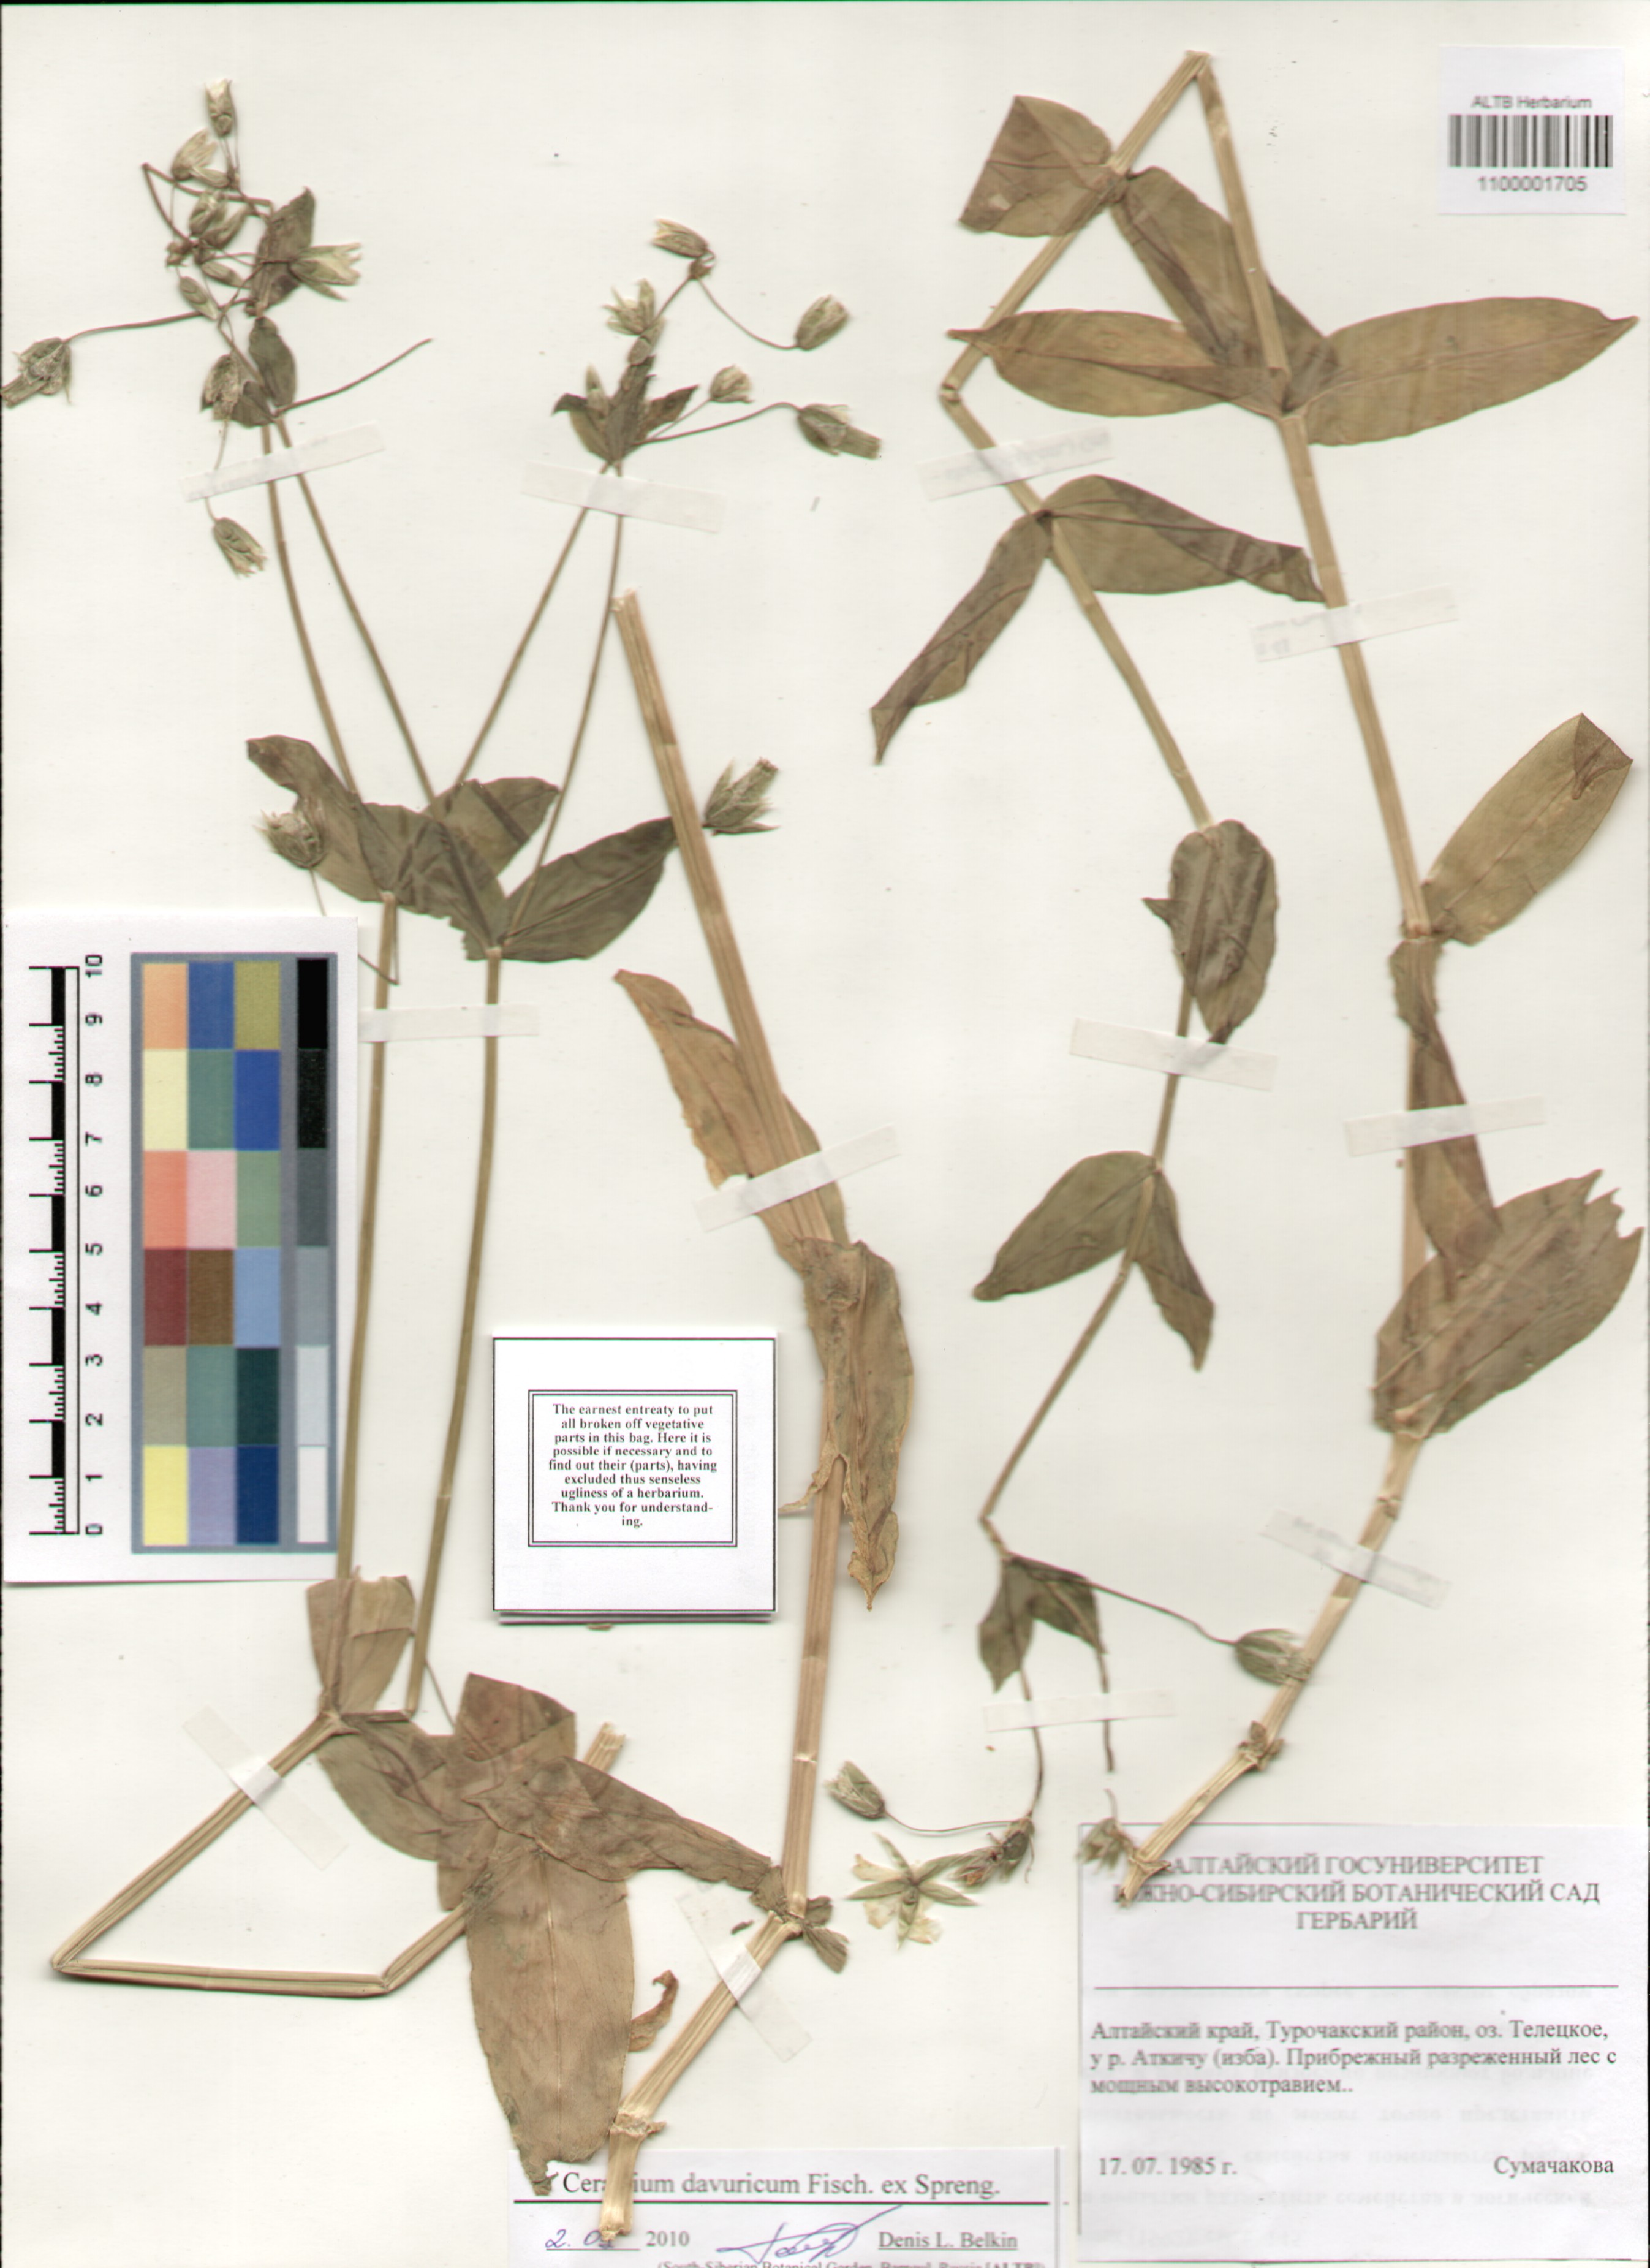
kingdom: Plantae
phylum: Tracheophyta
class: Magnoliopsida
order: Caryophyllales
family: Caryophyllaceae
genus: Dichodon
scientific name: Dichodon davuricum
